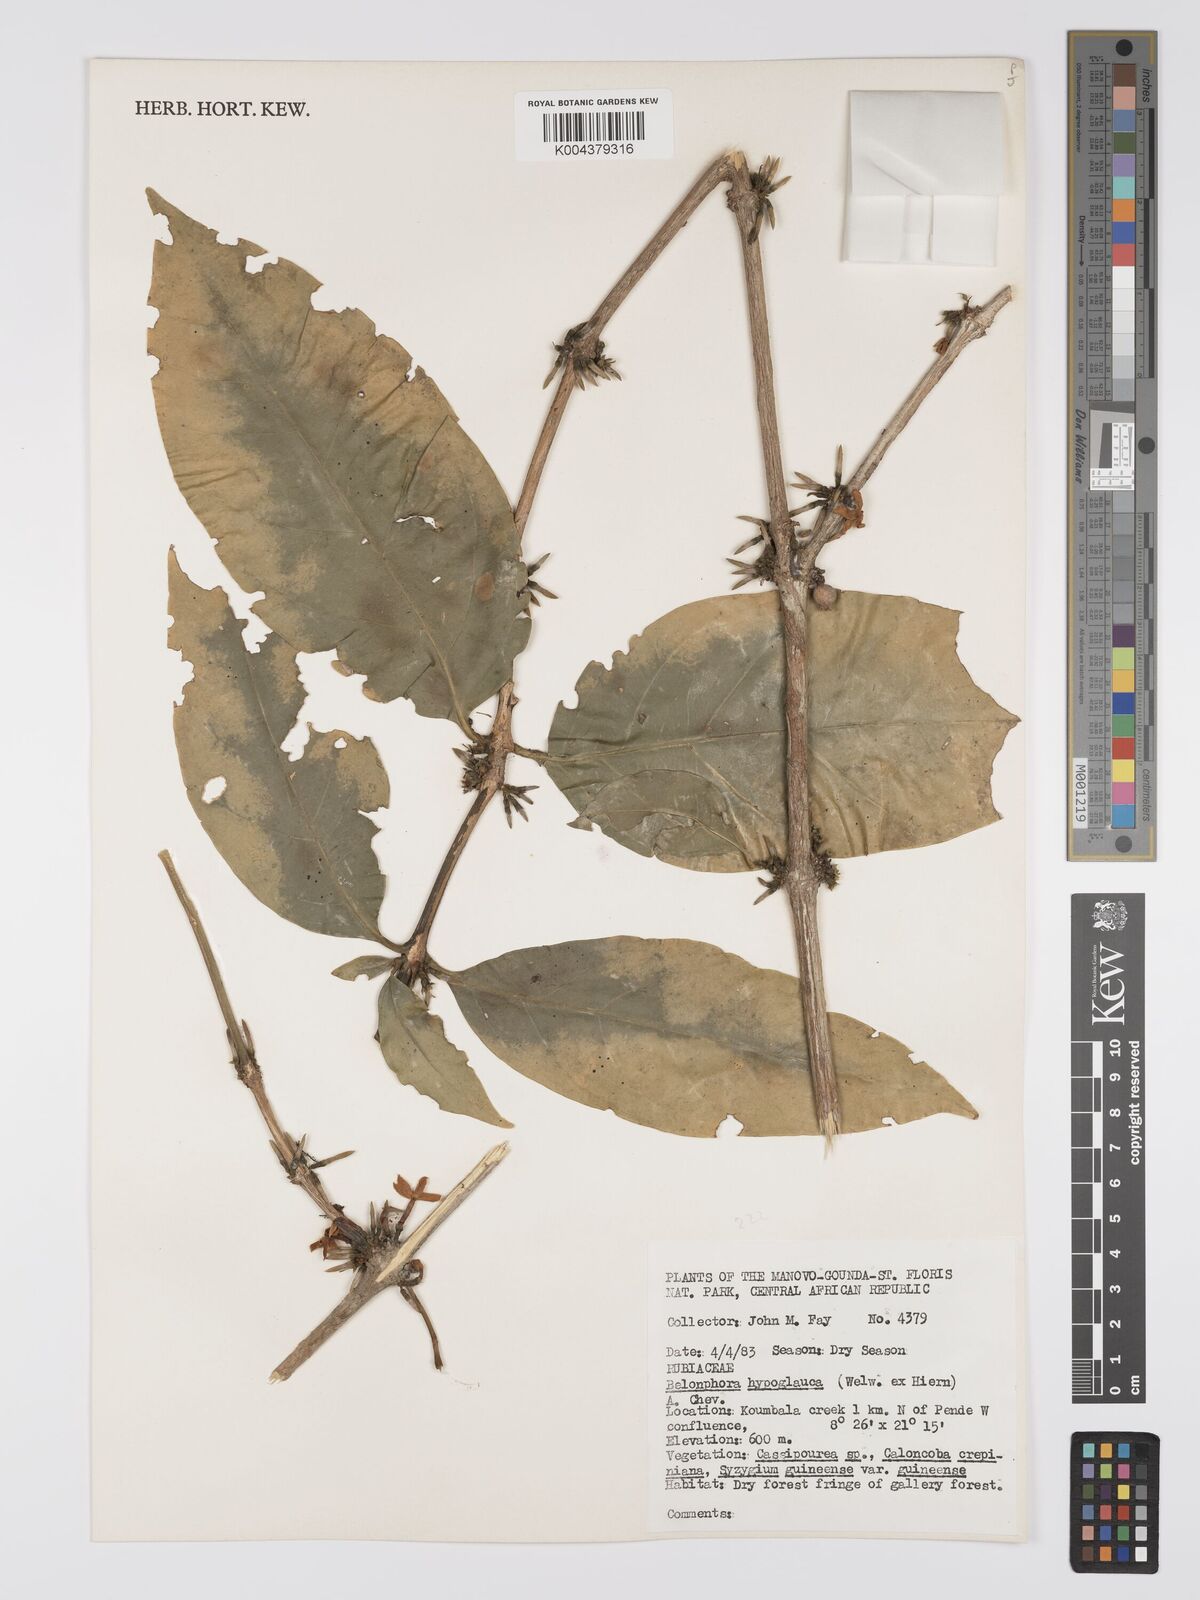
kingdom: Plantae
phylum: Tracheophyta
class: Magnoliopsida
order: Gentianales
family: Rubiaceae
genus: Belonophora
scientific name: Belonophora coffeoides
